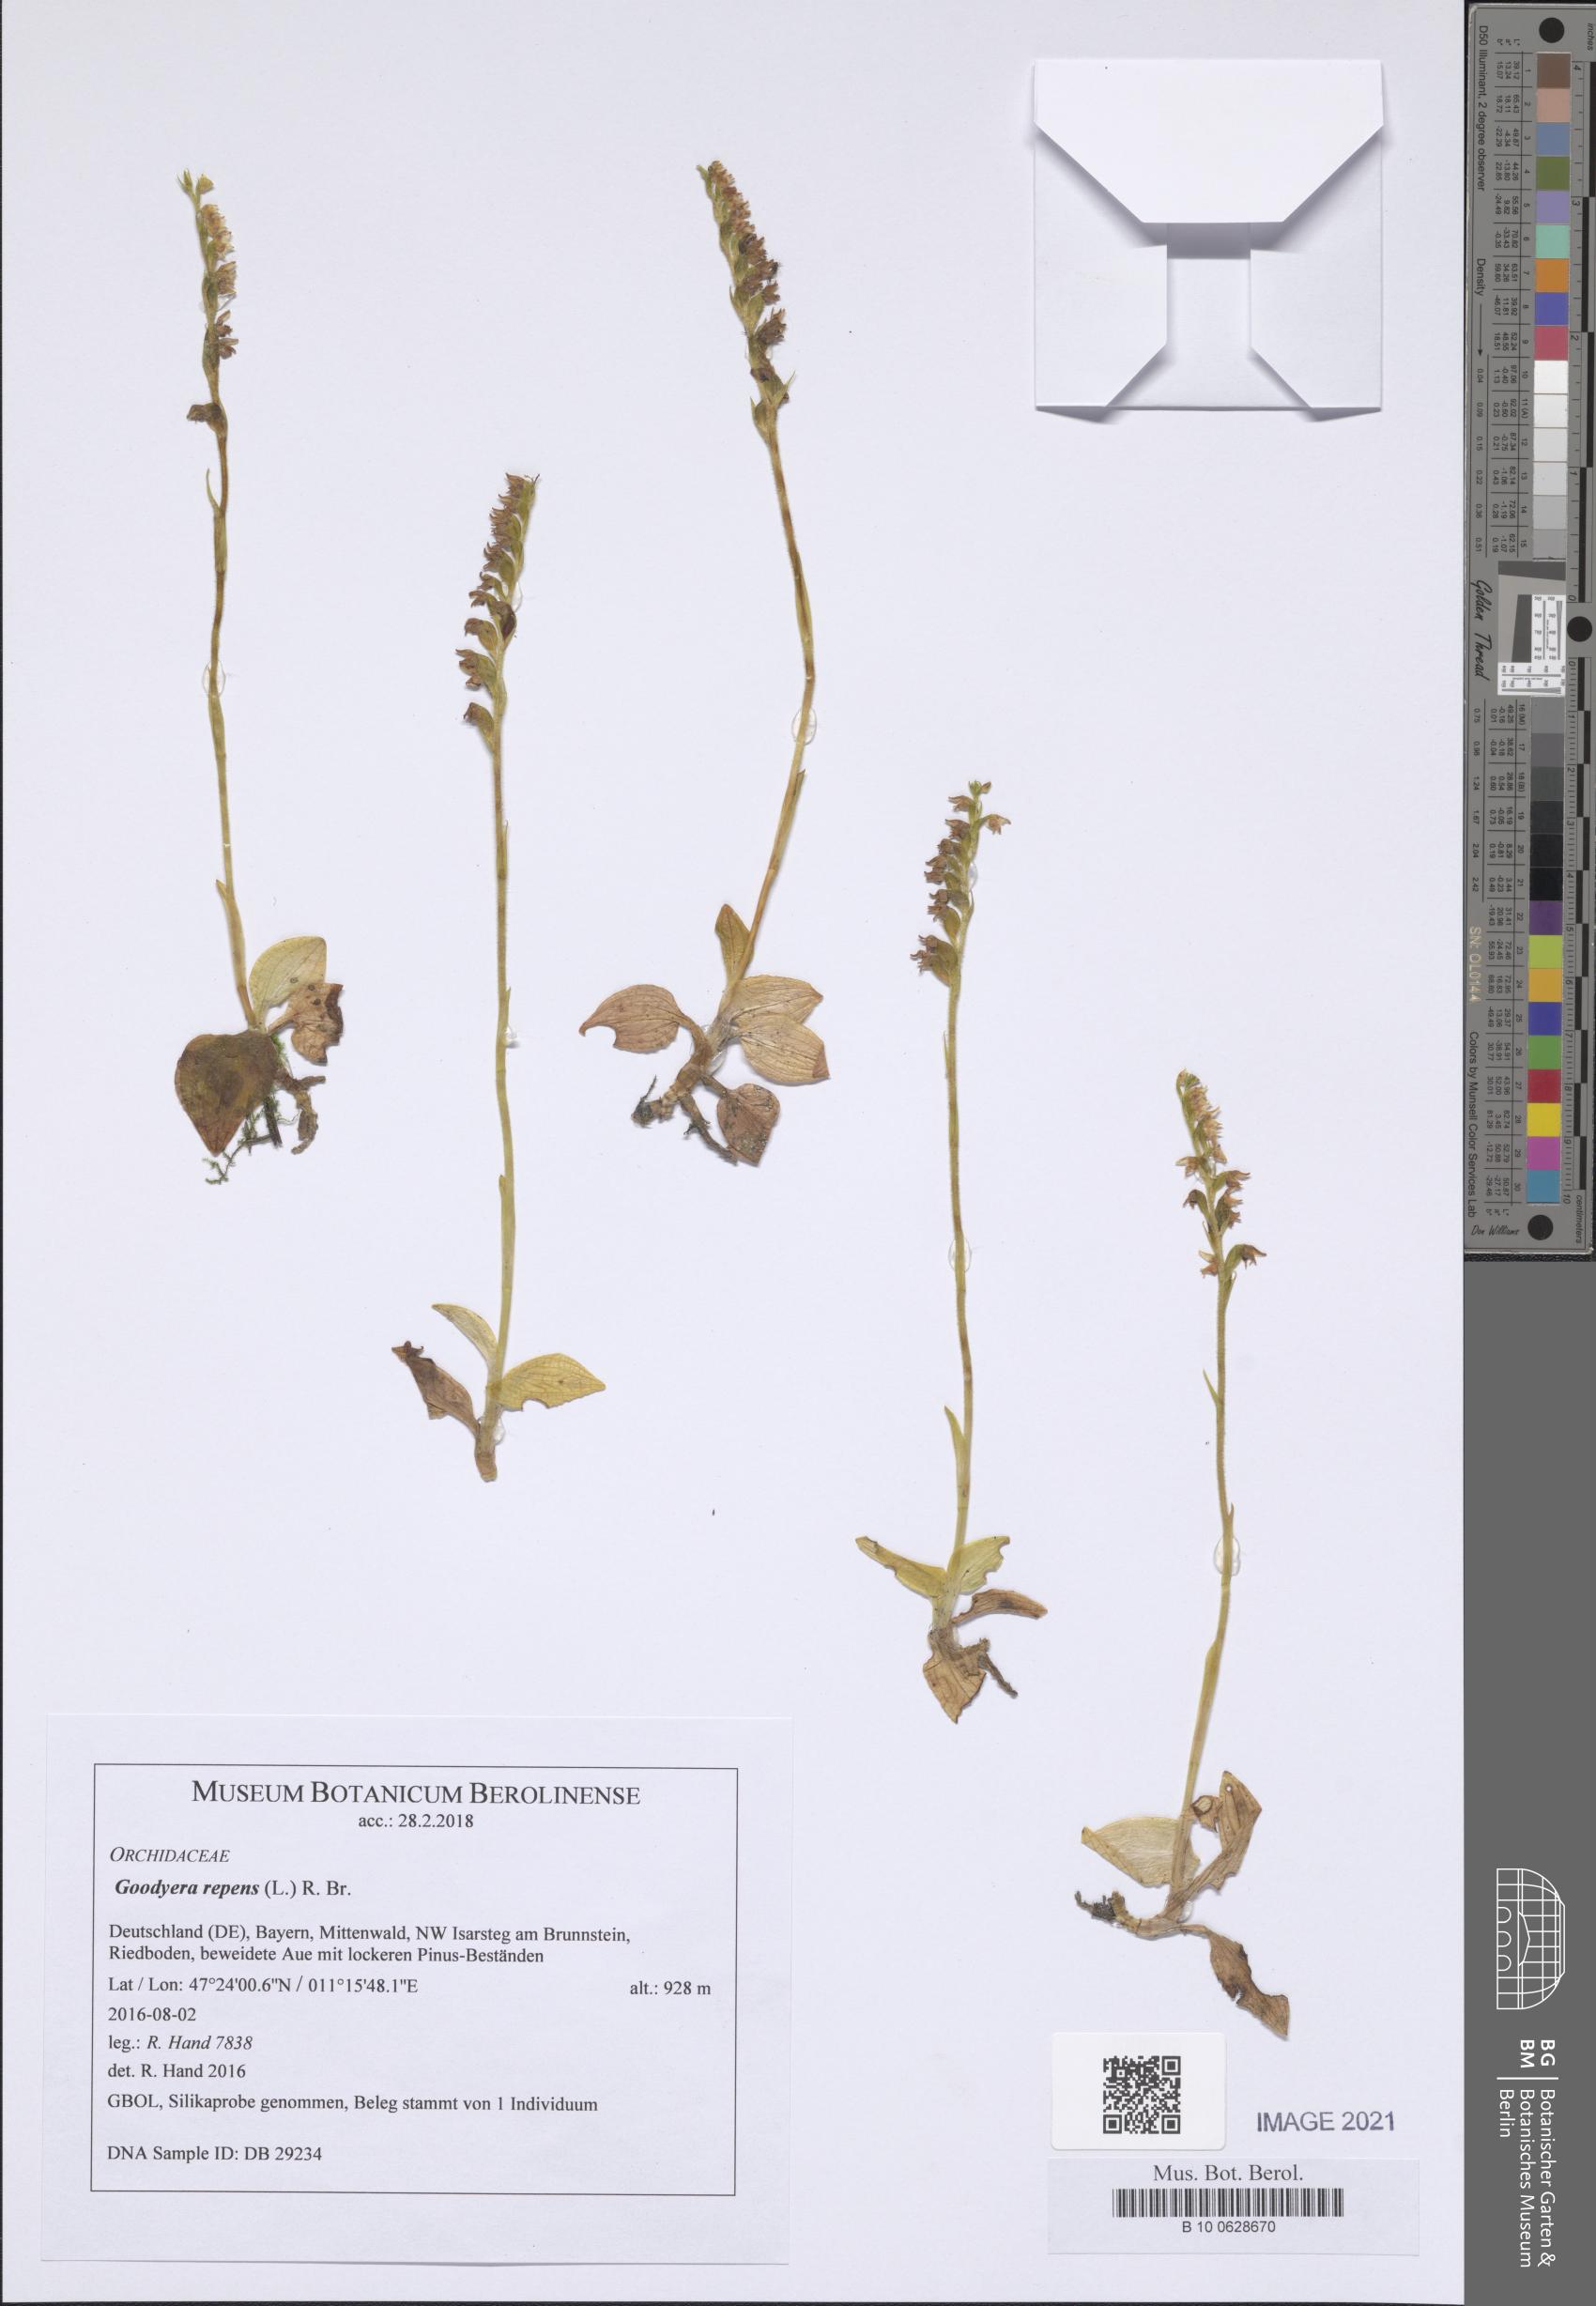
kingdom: Plantae
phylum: Tracheophyta
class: Liliopsida
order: Asparagales
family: Orchidaceae
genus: Goodyera
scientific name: Goodyera repens
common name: Creeping lady's-tresses
